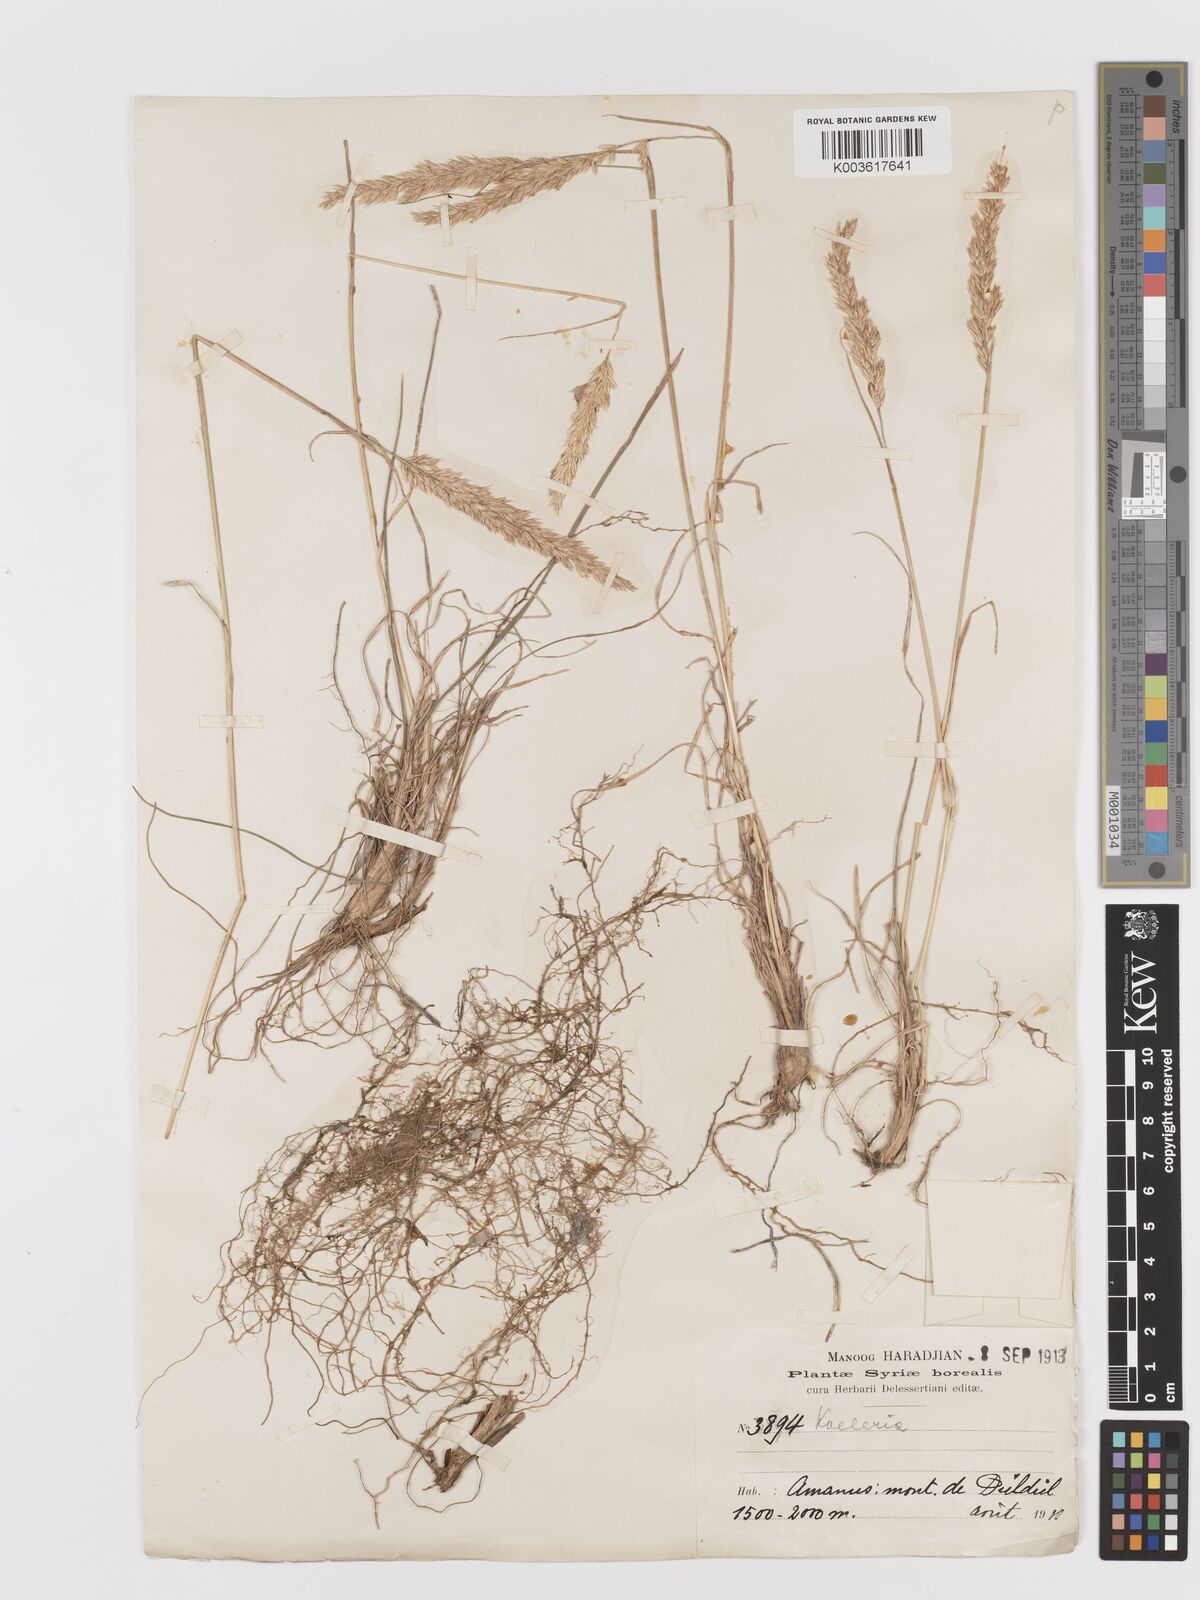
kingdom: Plantae
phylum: Tracheophyta
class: Liliopsida
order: Poales
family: Poaceae
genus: Koeleria
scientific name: Koeleria
